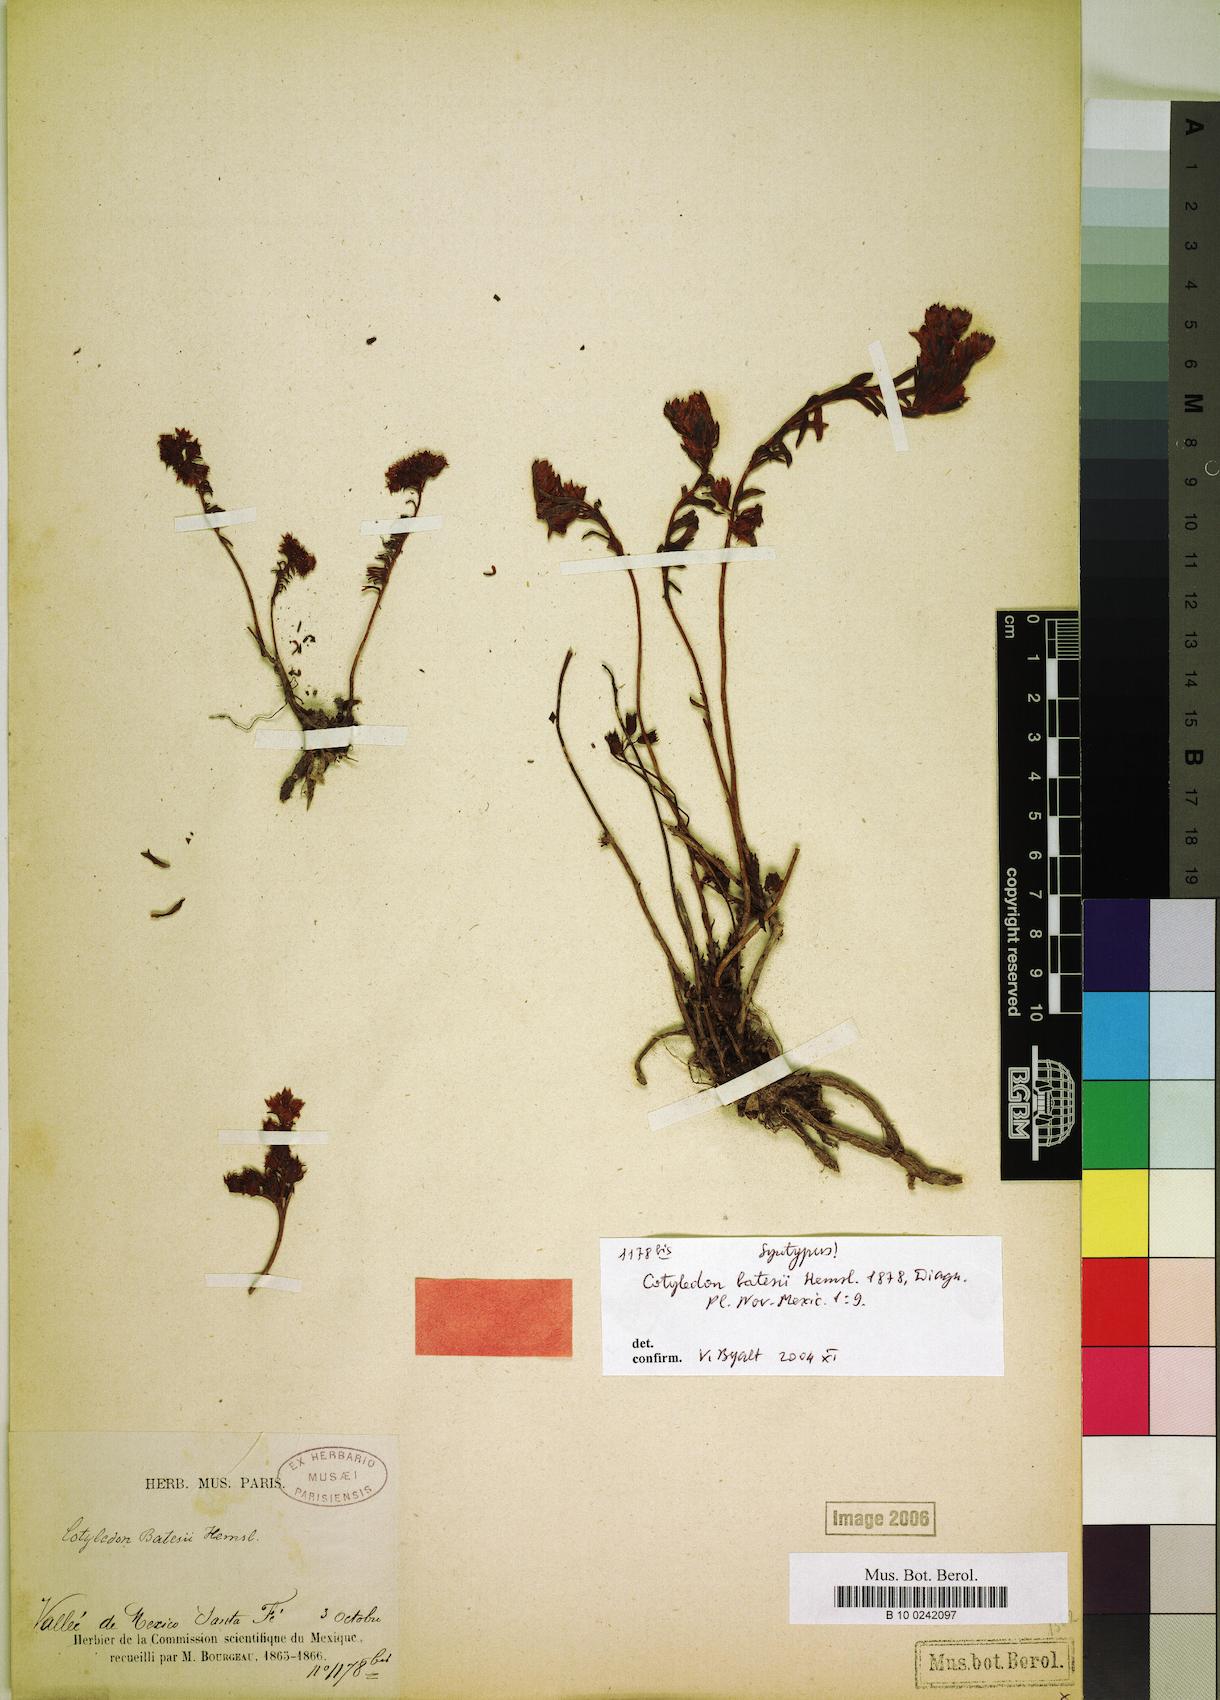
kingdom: Plantae
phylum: Tracheophyta
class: Magnoliopsida
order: Saxifragales
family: Crassulaceae
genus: Sedum
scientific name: Sedum goldmanii
